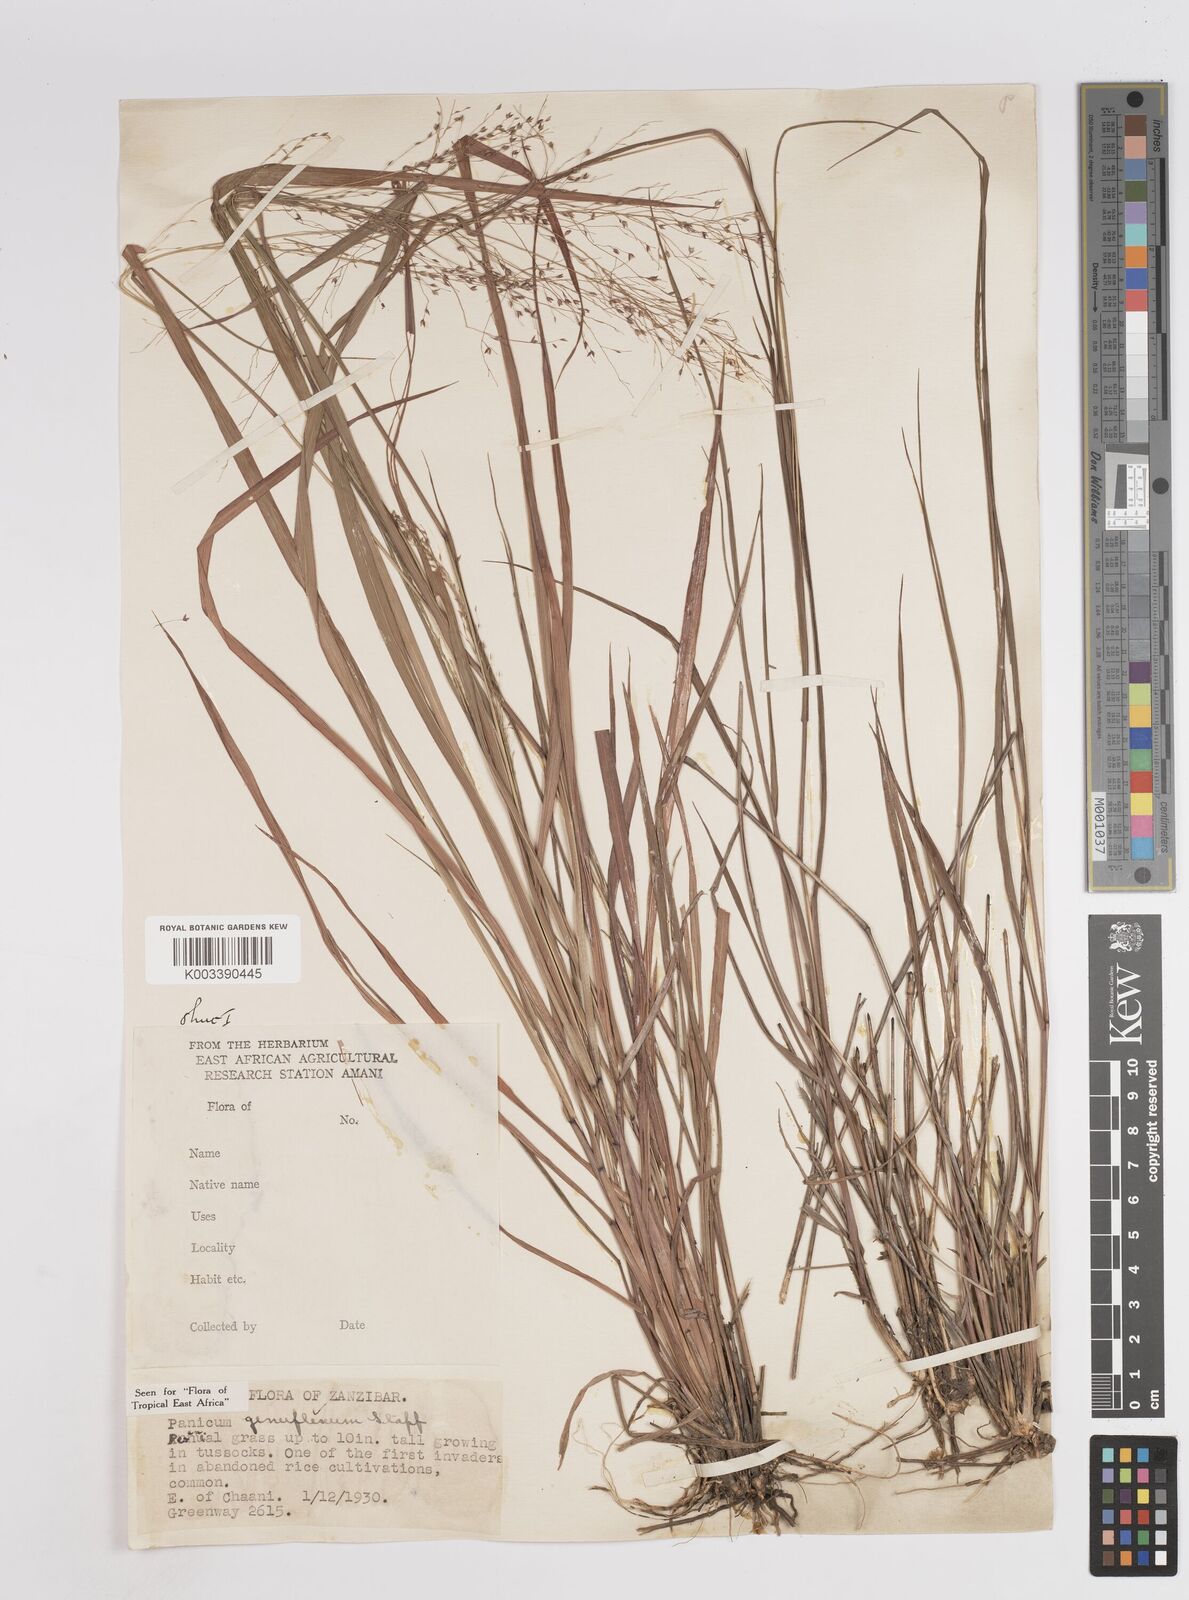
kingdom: Plantae
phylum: Tracheophyta
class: Liliopsida
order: Poales
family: Poaceae
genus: Panicum
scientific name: Panicum genuflexum
